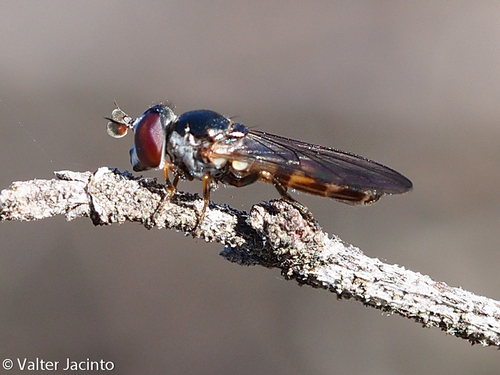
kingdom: Animalia
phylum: Arthropoda
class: Insecta
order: Diptera
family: Syrphidae
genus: Chamaesyrphus
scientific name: Chamaesyrphus lugubris
